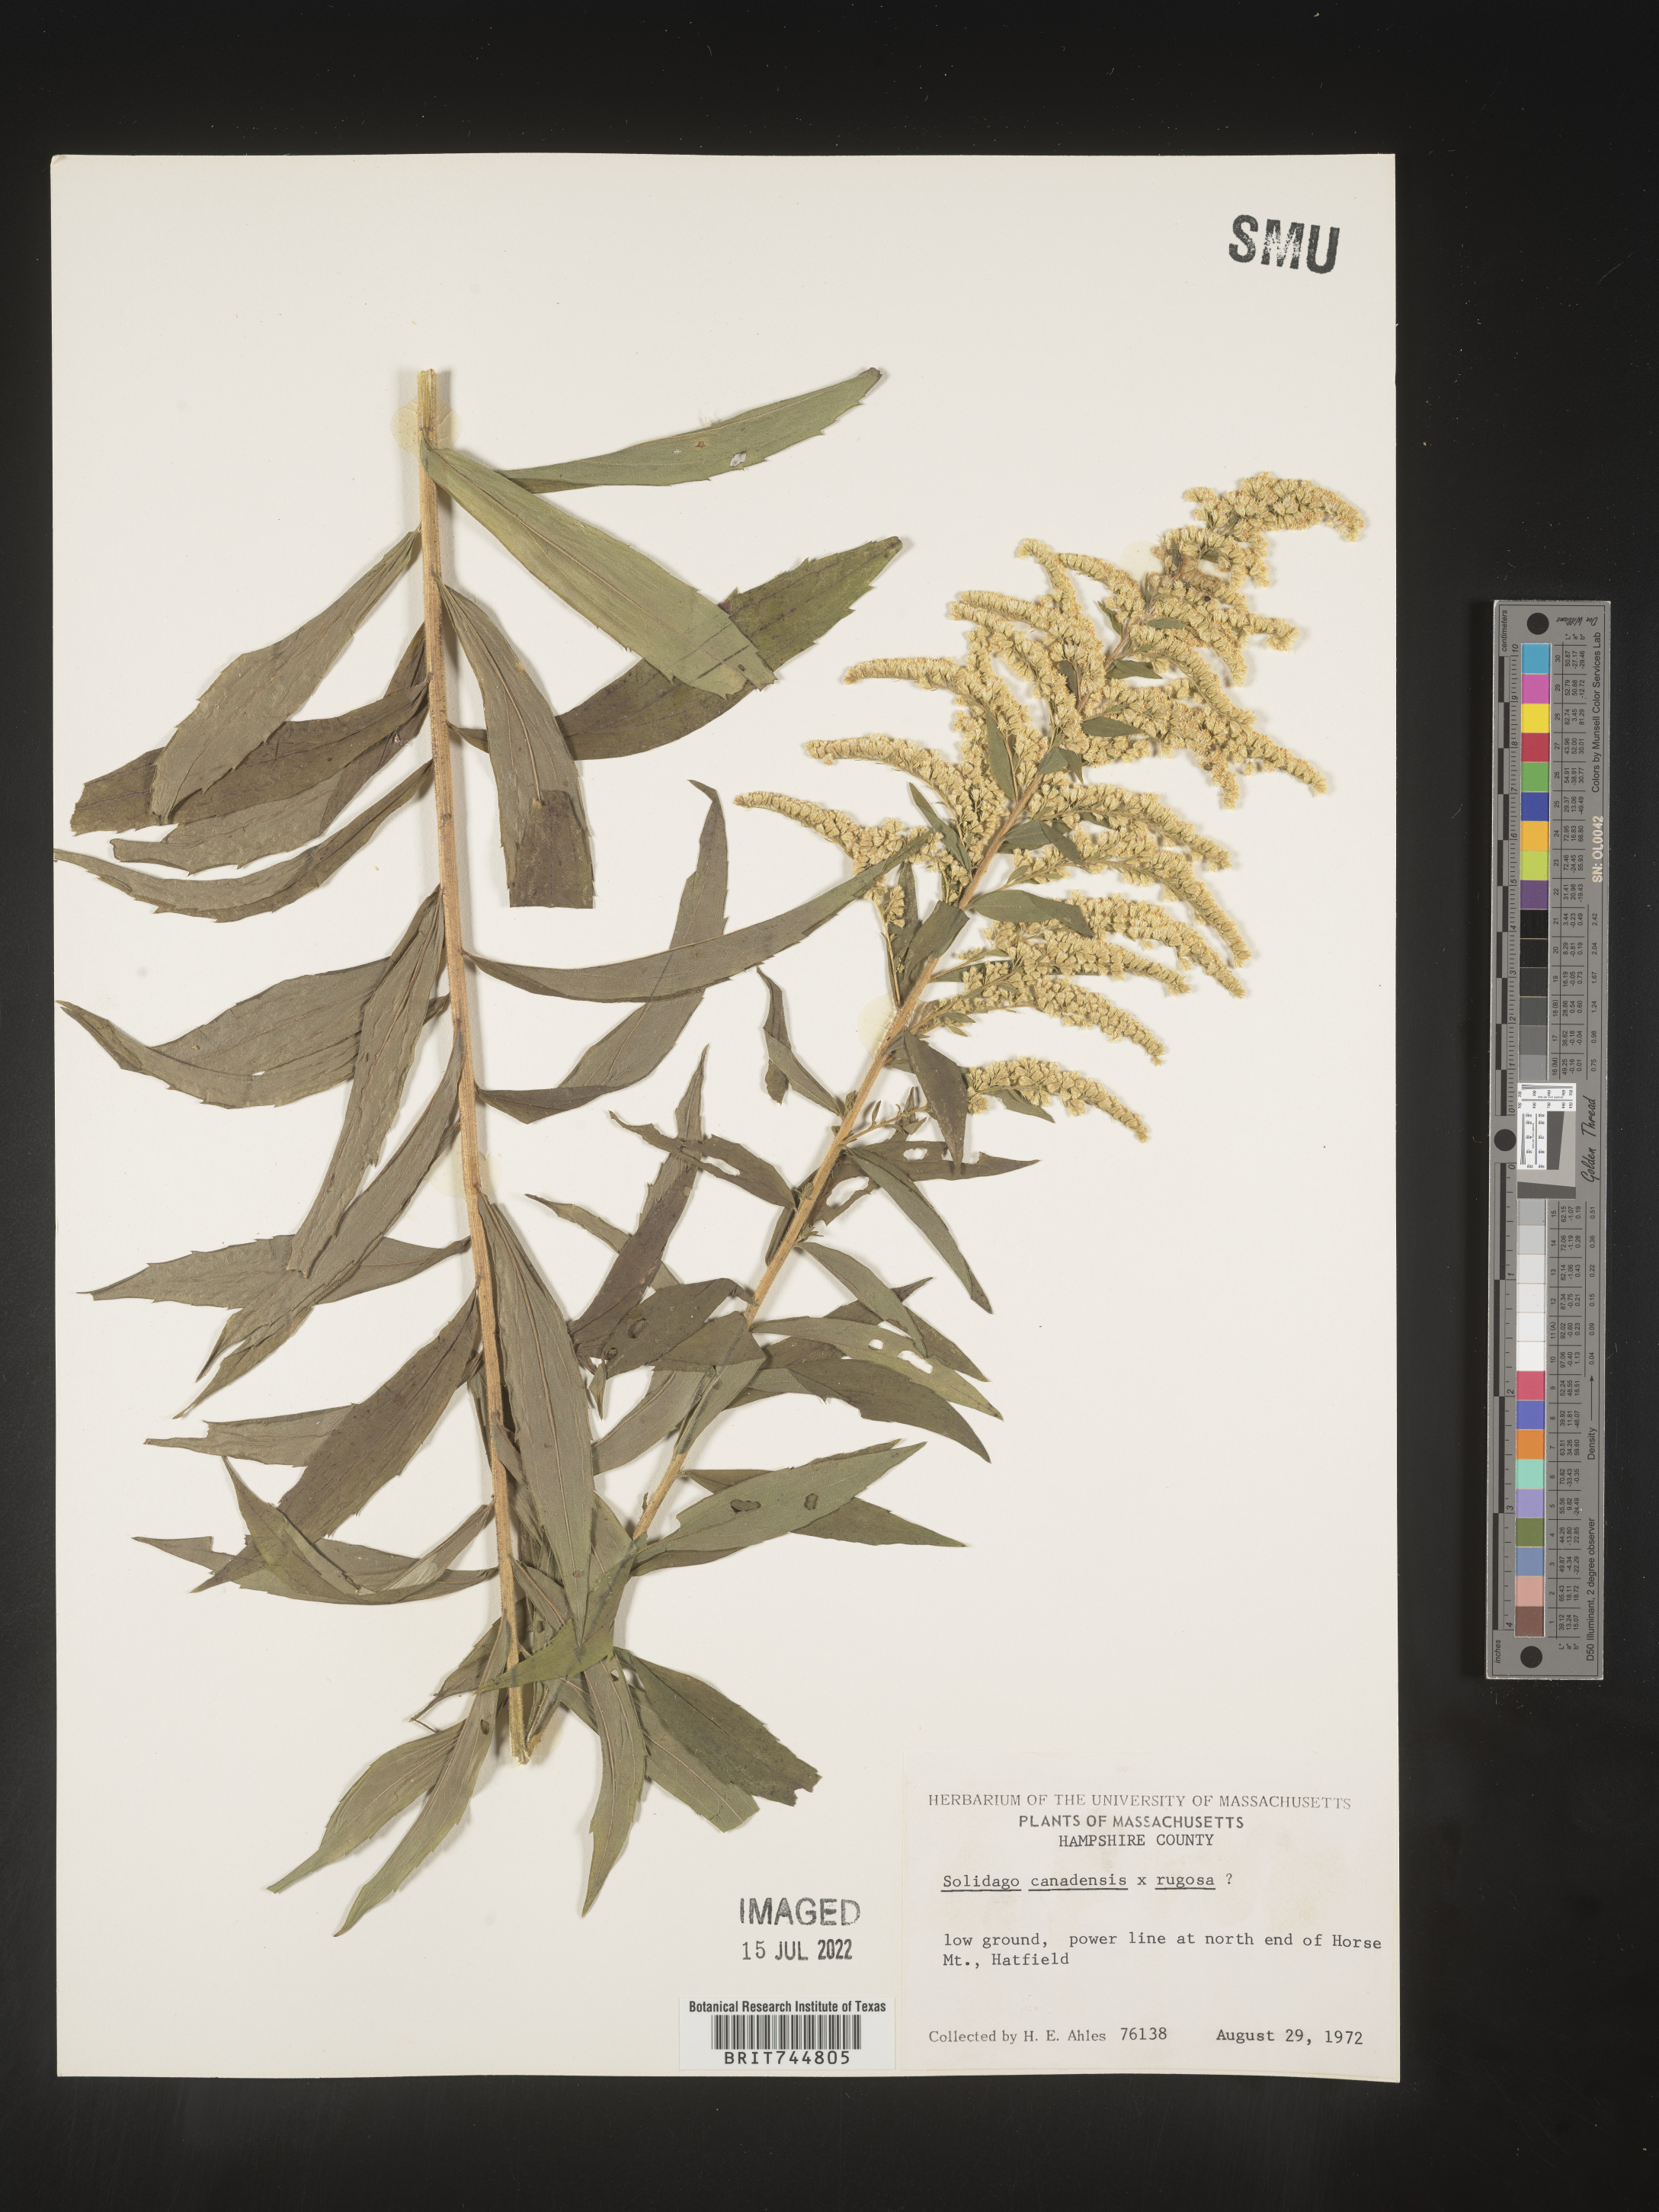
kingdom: Plantae
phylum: Tracheophyta
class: Magnoliopsida
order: Asterales
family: Asteraceae
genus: Solidago
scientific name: Solidago canadensis
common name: Canada goldenrod
